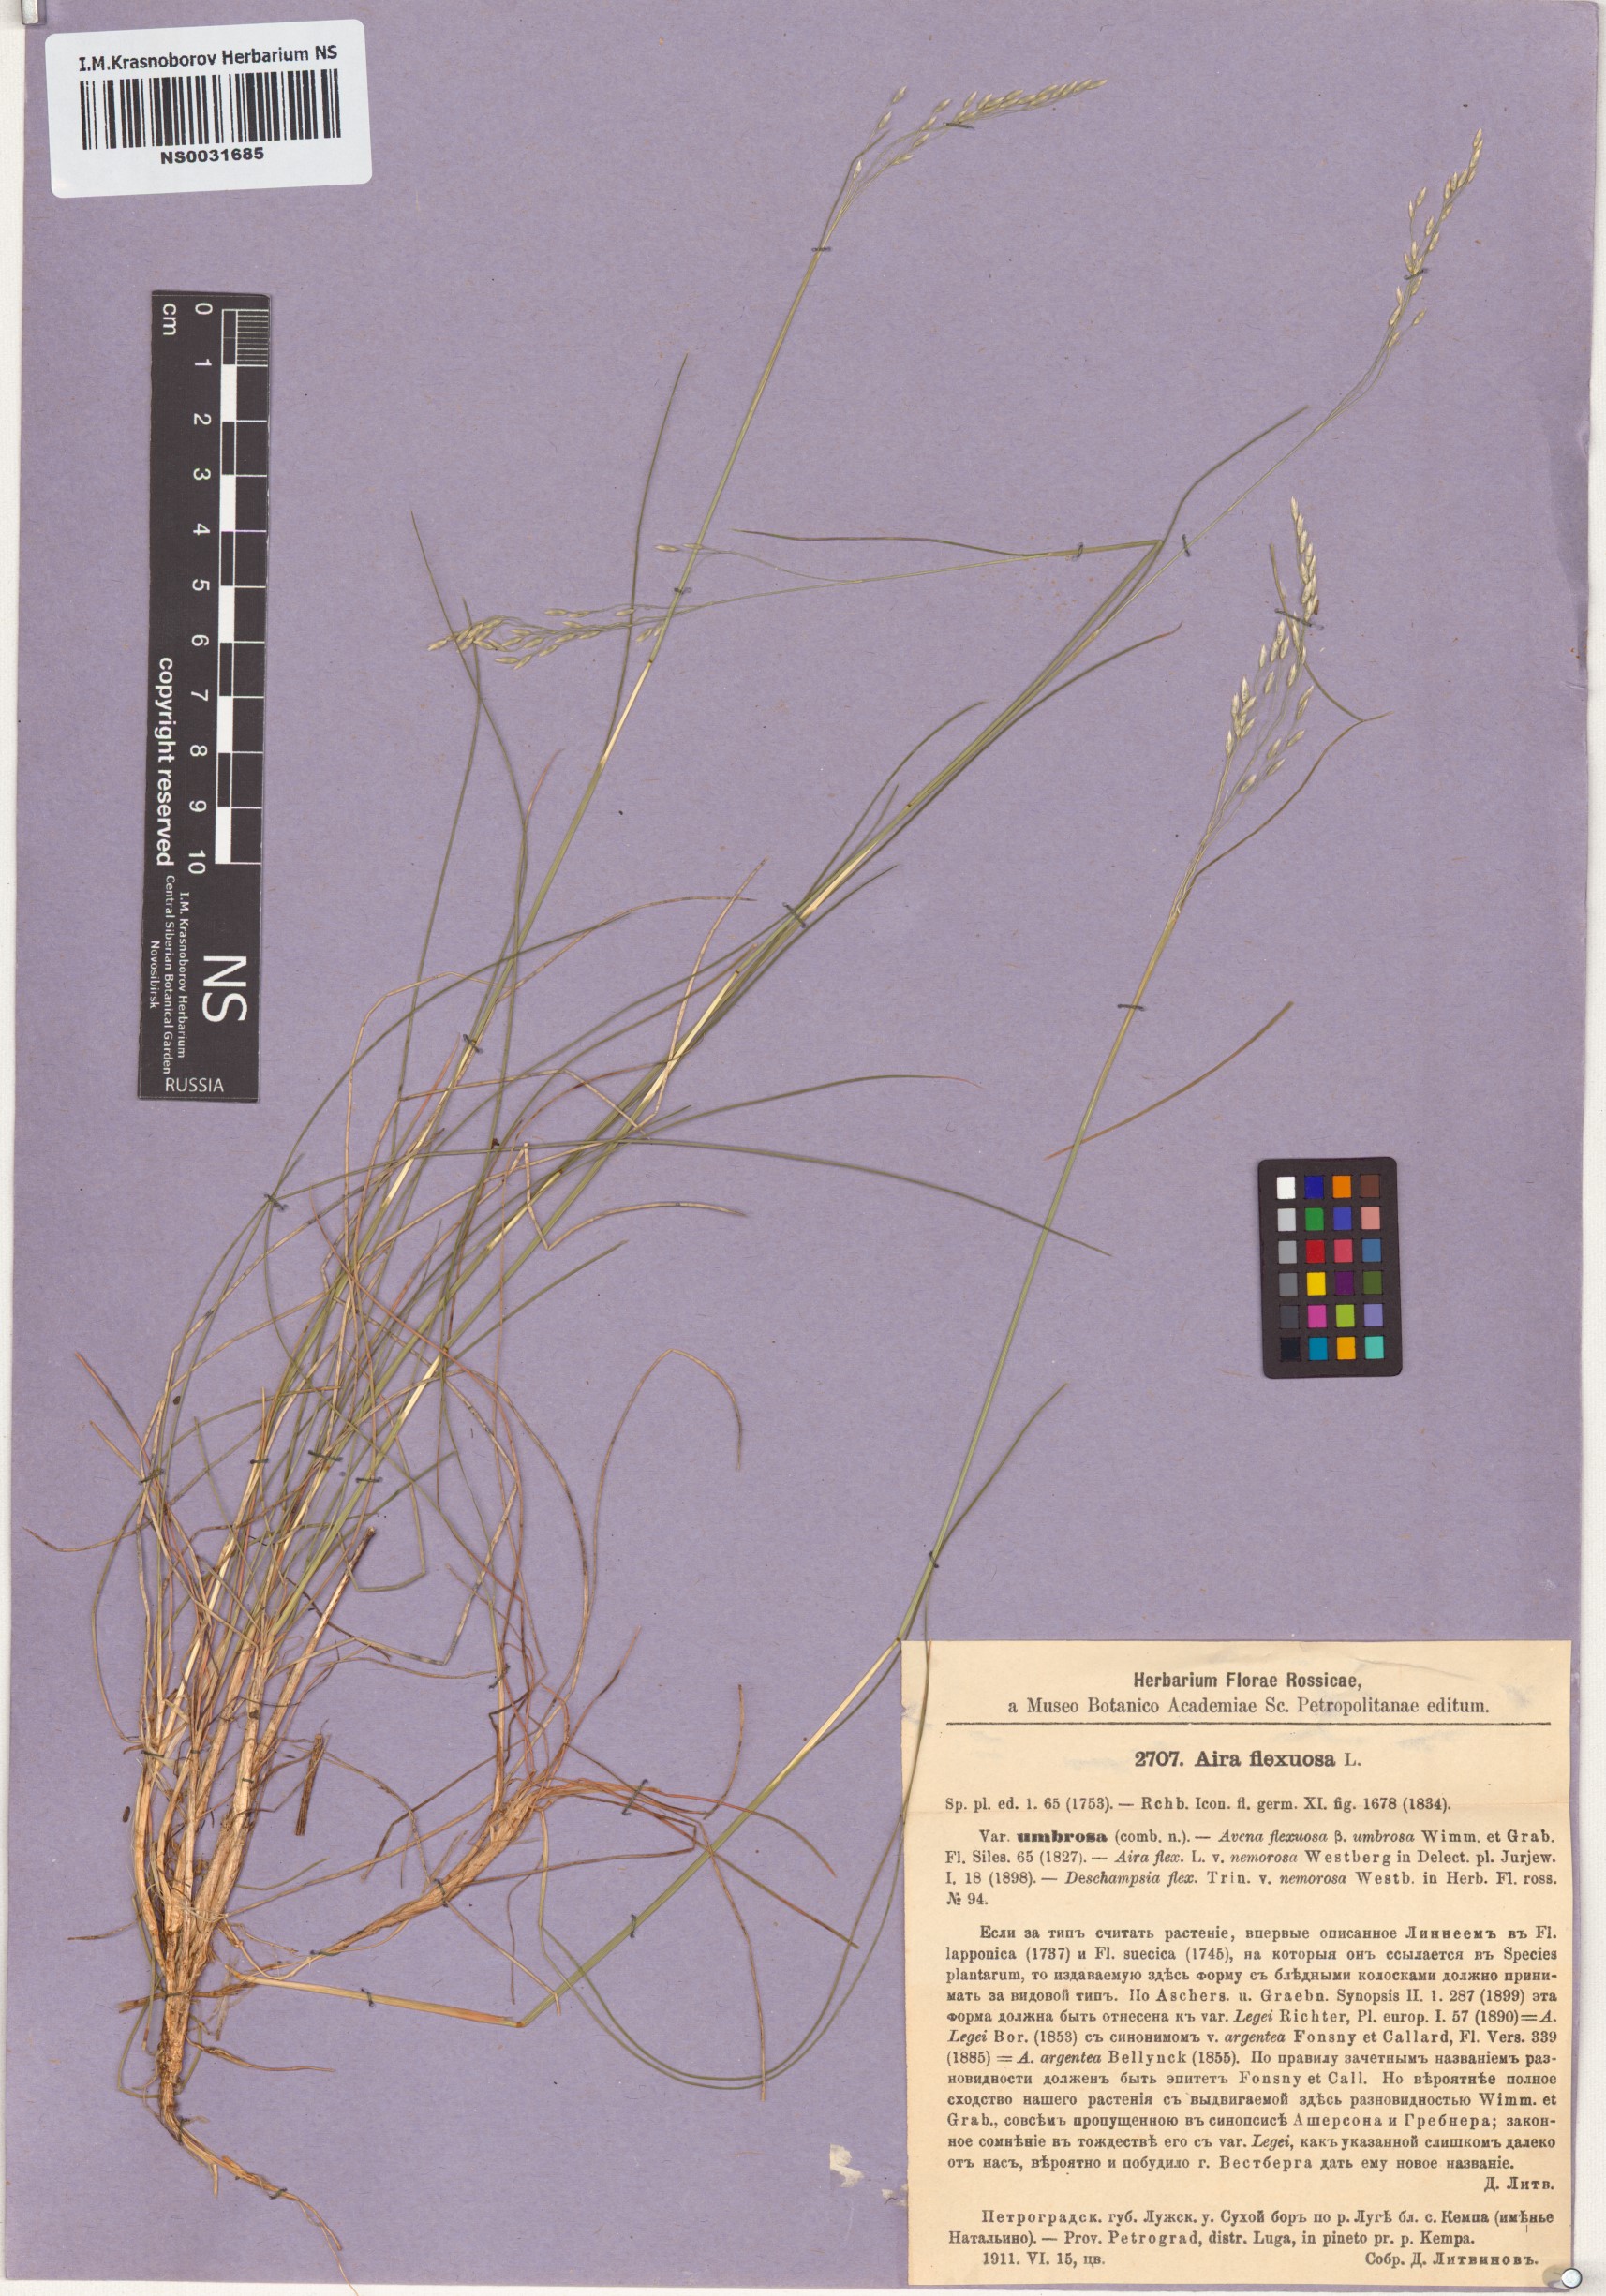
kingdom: Plantae
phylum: Tracheophyta
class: Liliopsida
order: Poales
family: Poaceae
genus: Avenella
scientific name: Avenella flexuosa
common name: Wavy hairgrass
